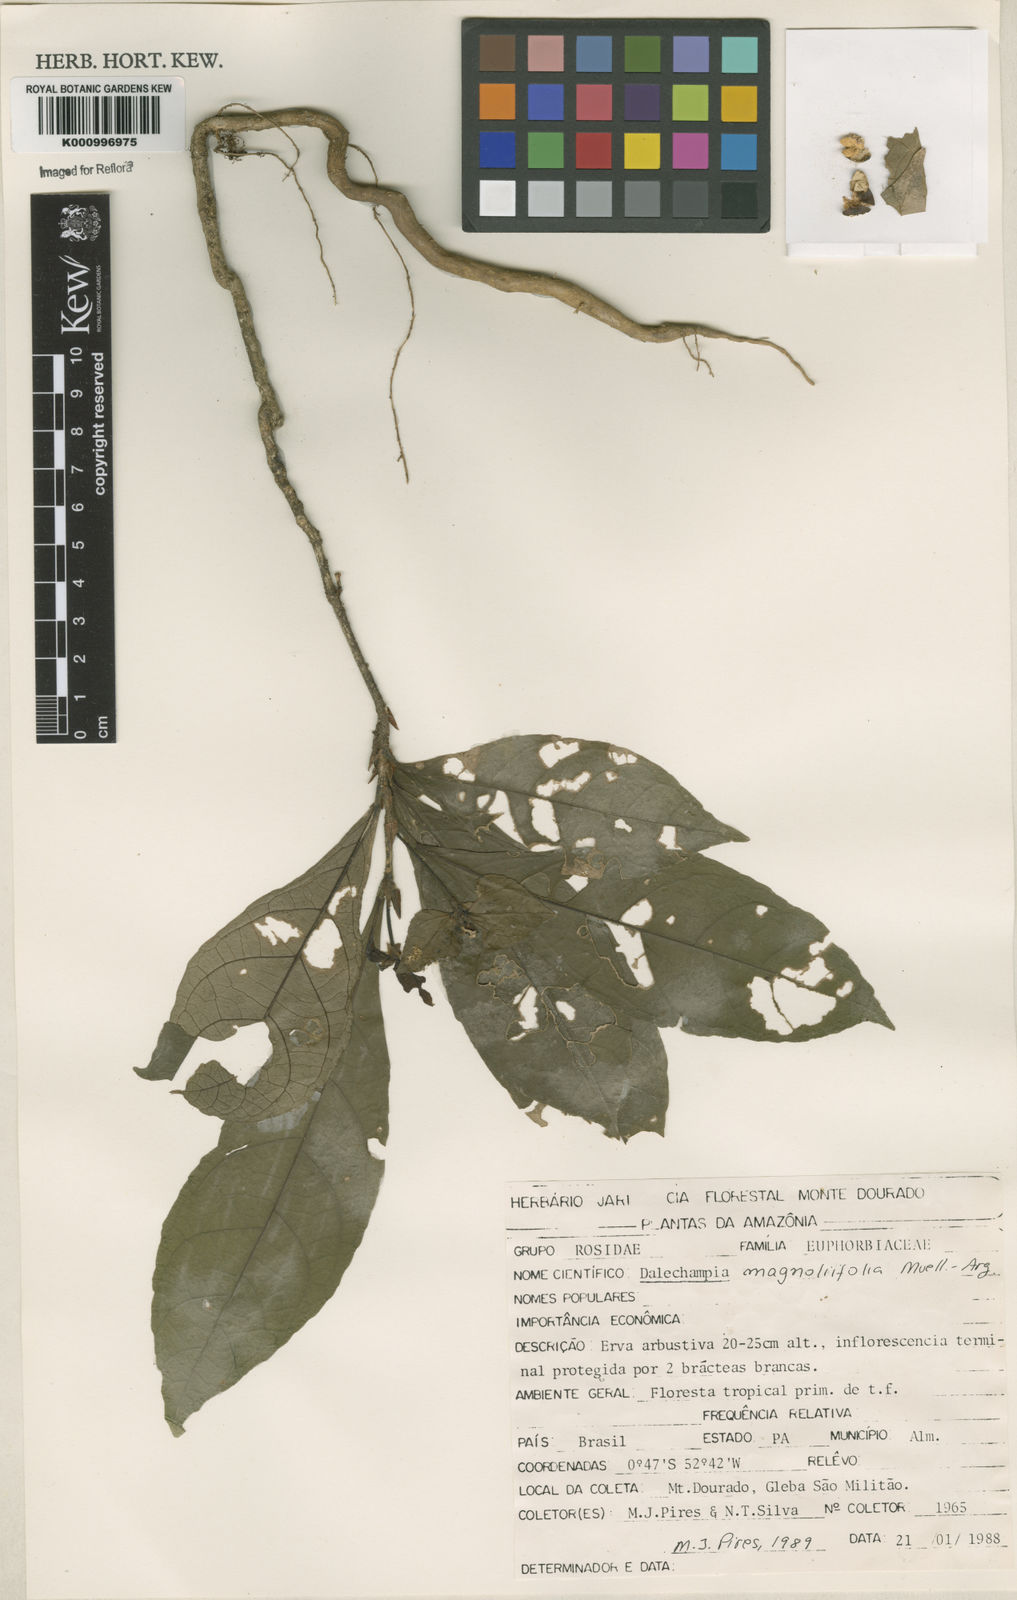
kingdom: Plantae
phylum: Tracheophyta
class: Magnoliopsida
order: Malpighiales
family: Euphorbiaceae
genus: Dalechampia
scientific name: Dalechampia magnoliifolia
